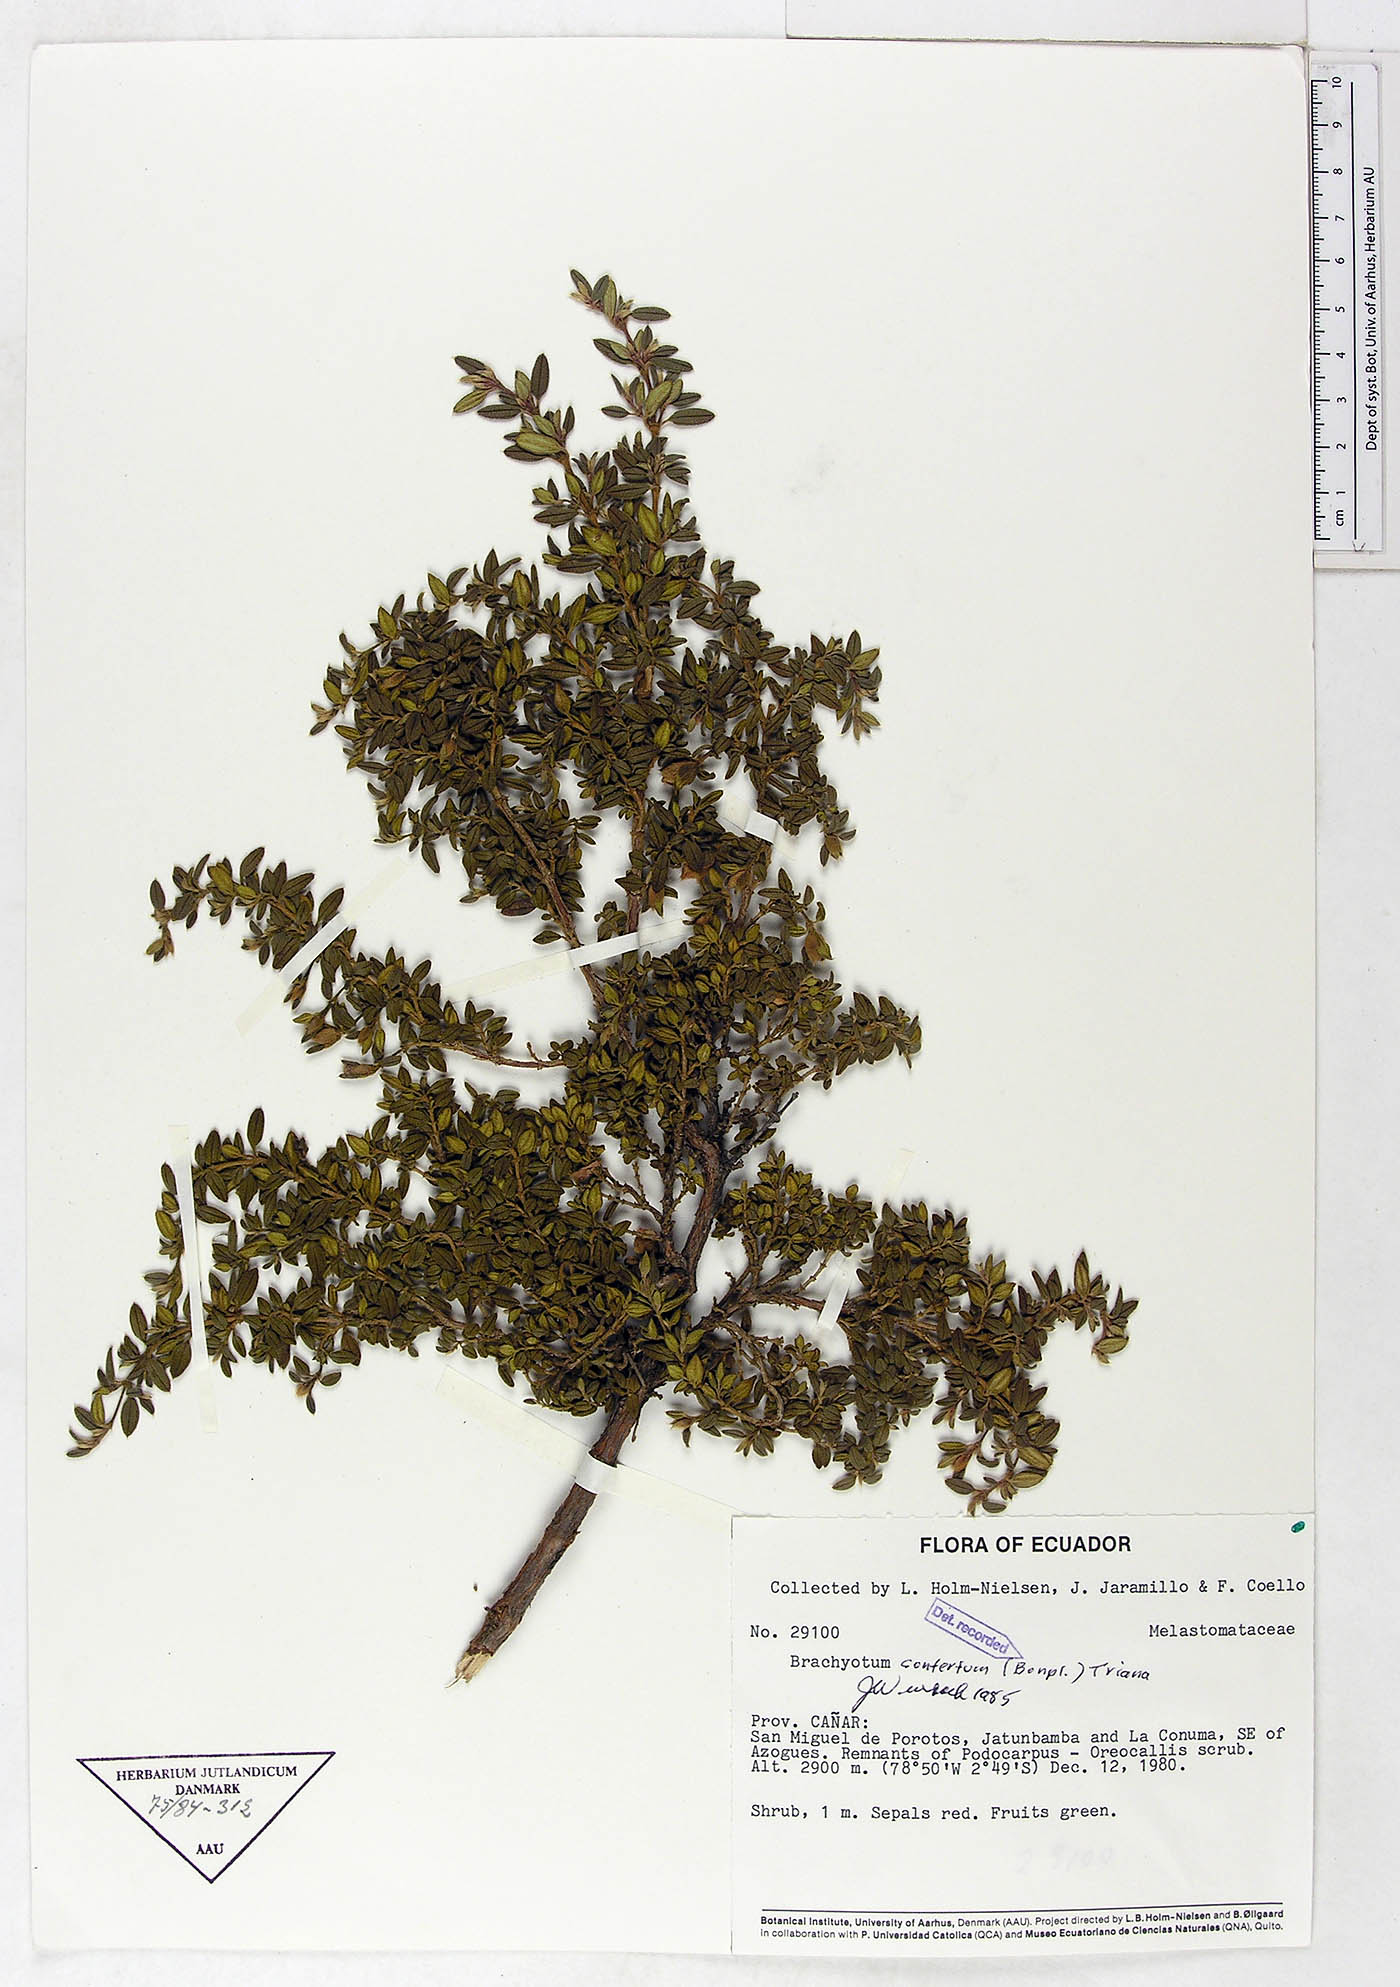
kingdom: Plantae
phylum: Tracheophyta
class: Magnoliopsida
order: Myrtales
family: Melastomataceae
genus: Brachyotum
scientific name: Brachyotum confertum
